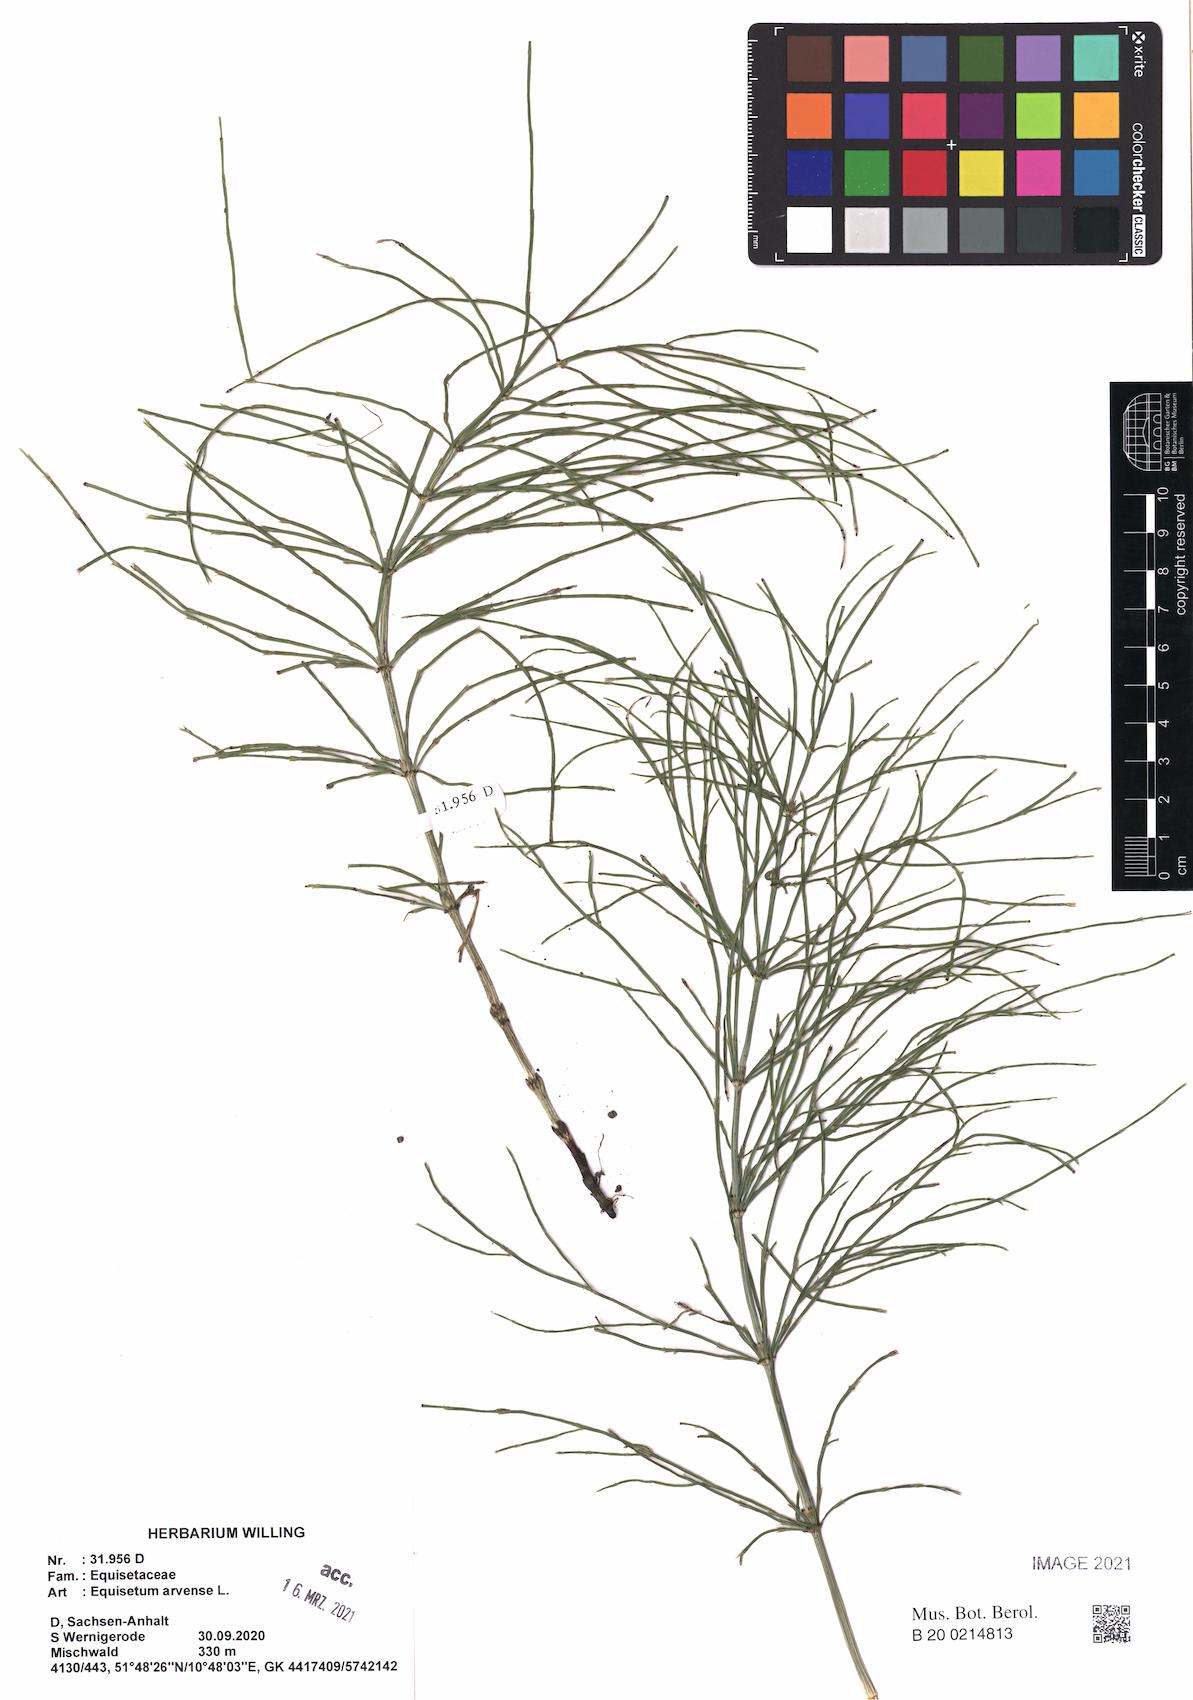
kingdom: Plantae
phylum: Tracheophyta
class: Polypodiopsida
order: Equisetales
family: Equisetaceae
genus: Equisetum
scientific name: Equisetum arvense
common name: Field horsetail
